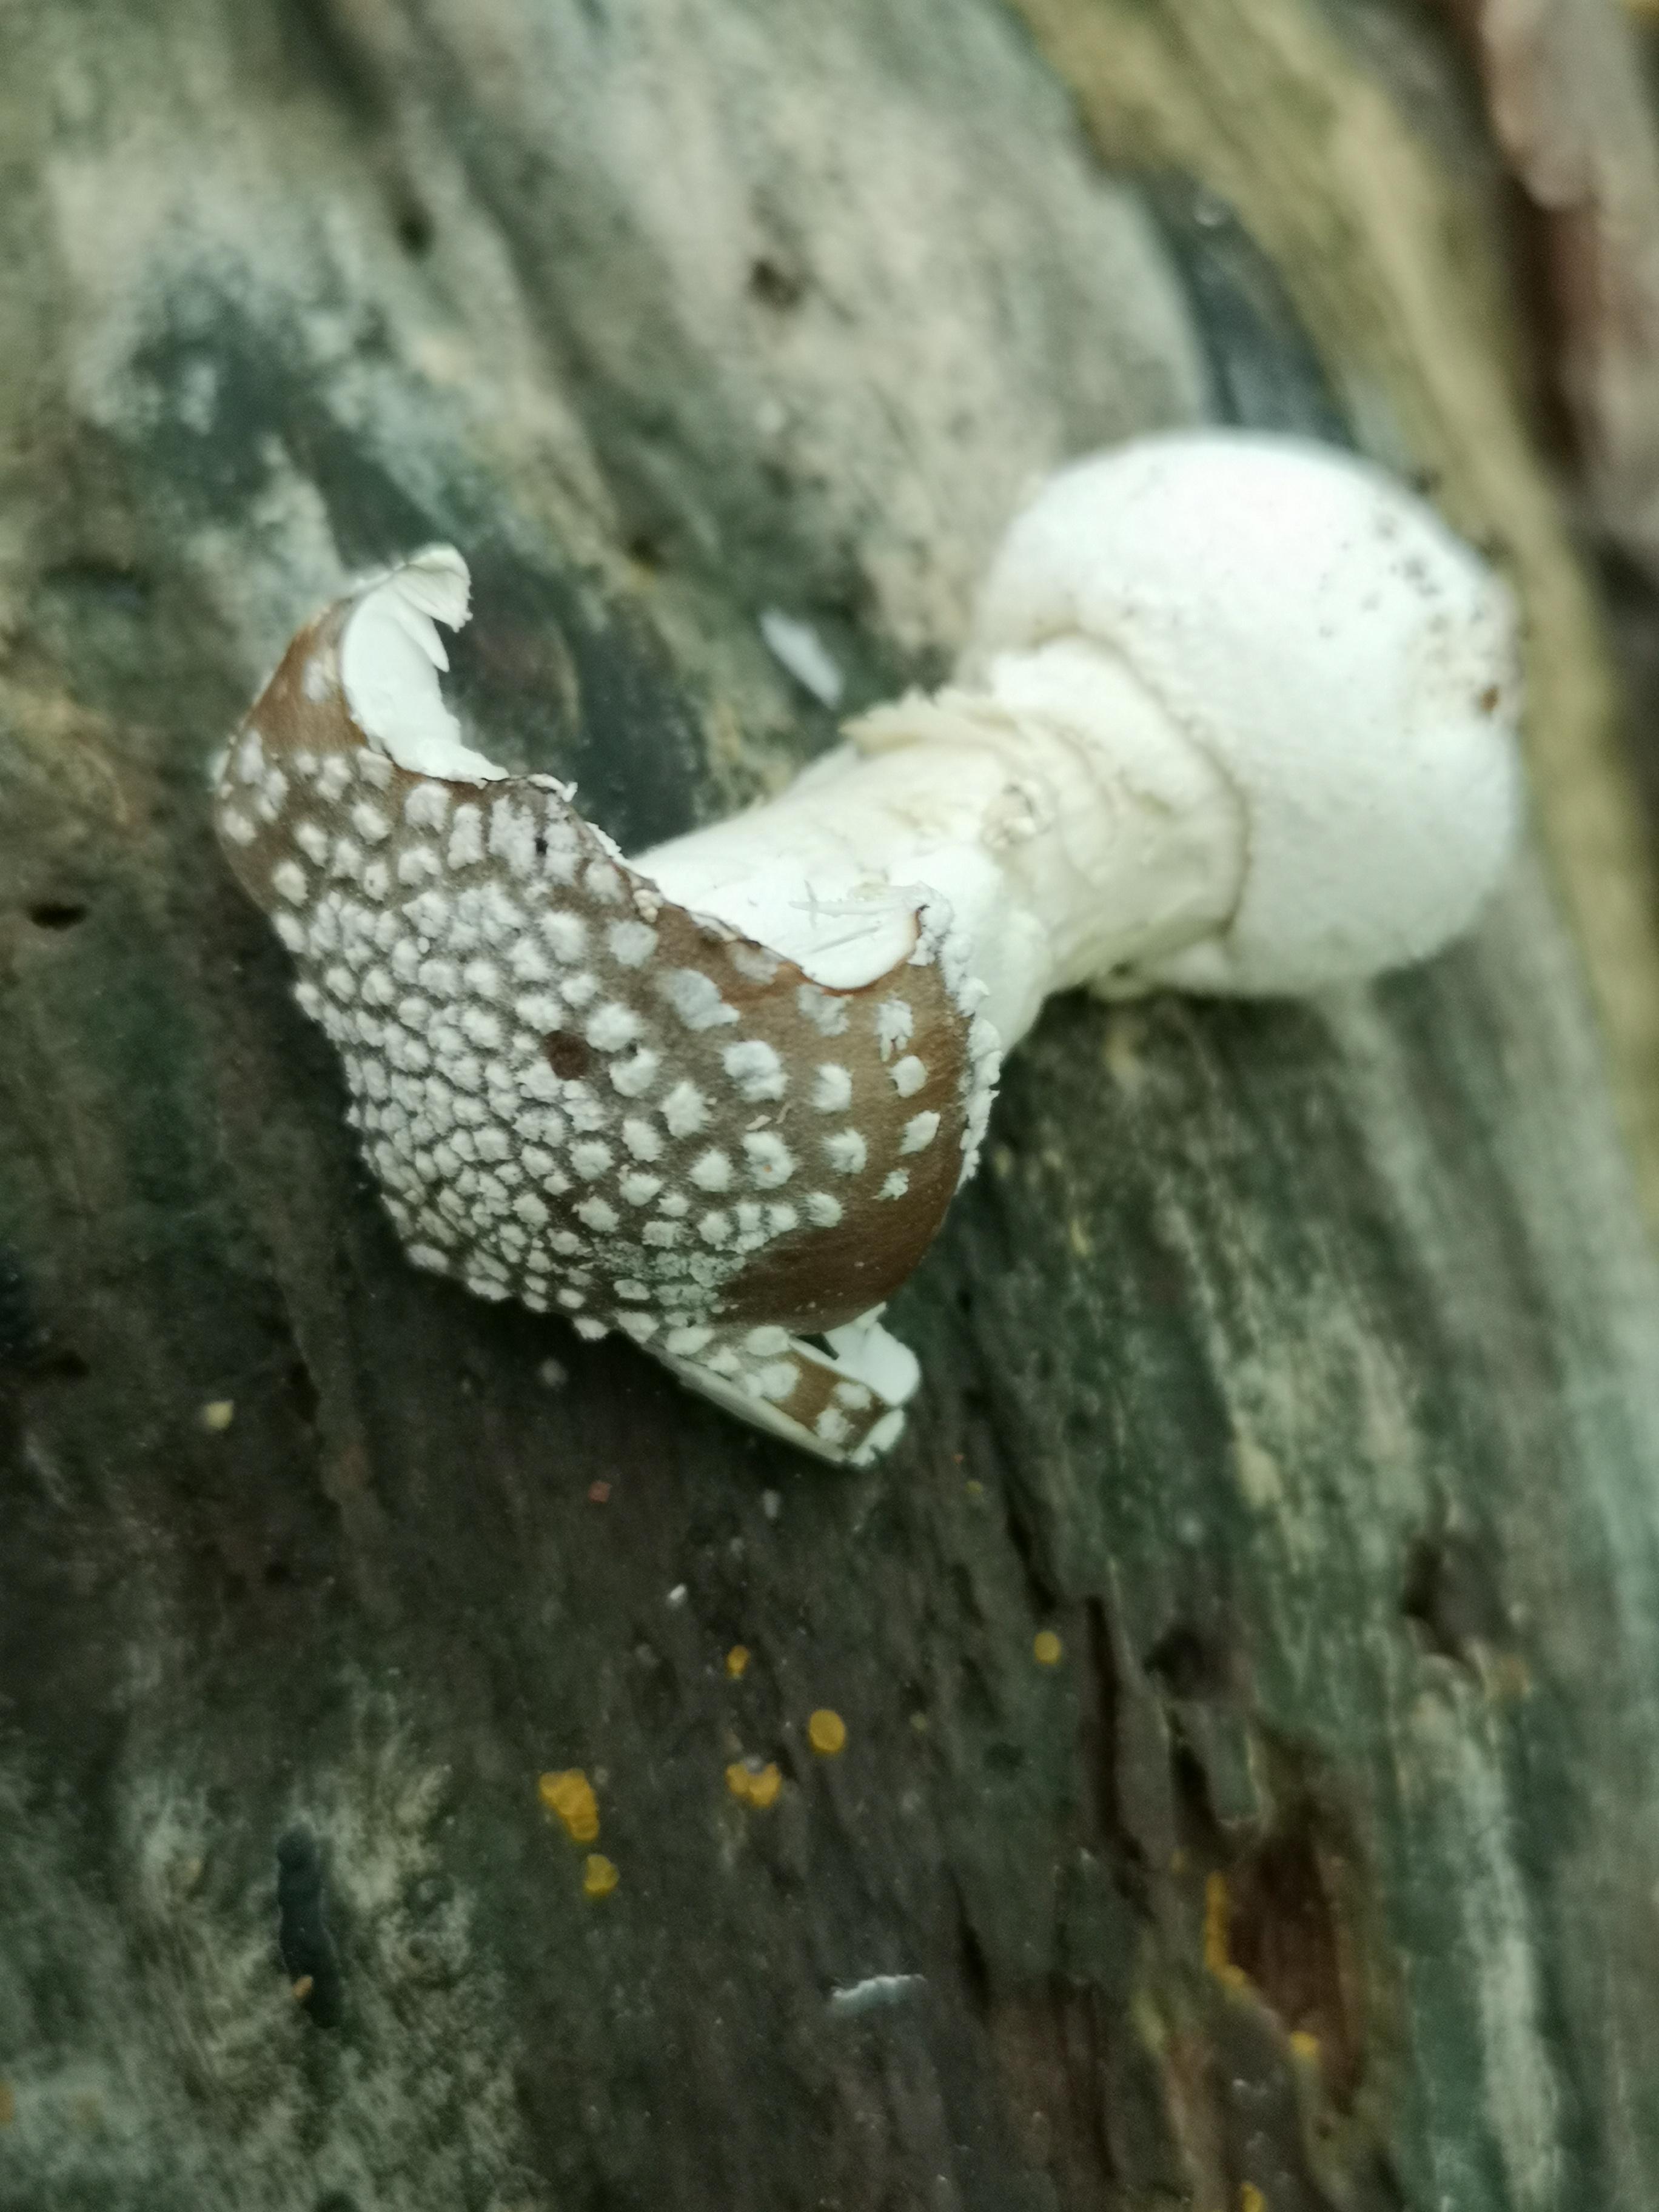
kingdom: Fungi
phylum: Basidiomycota
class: Agaricomycetes
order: Agaricales
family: Amanitaceae
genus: Amanita
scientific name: Amanita pantherina
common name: panter-fluesvamp
